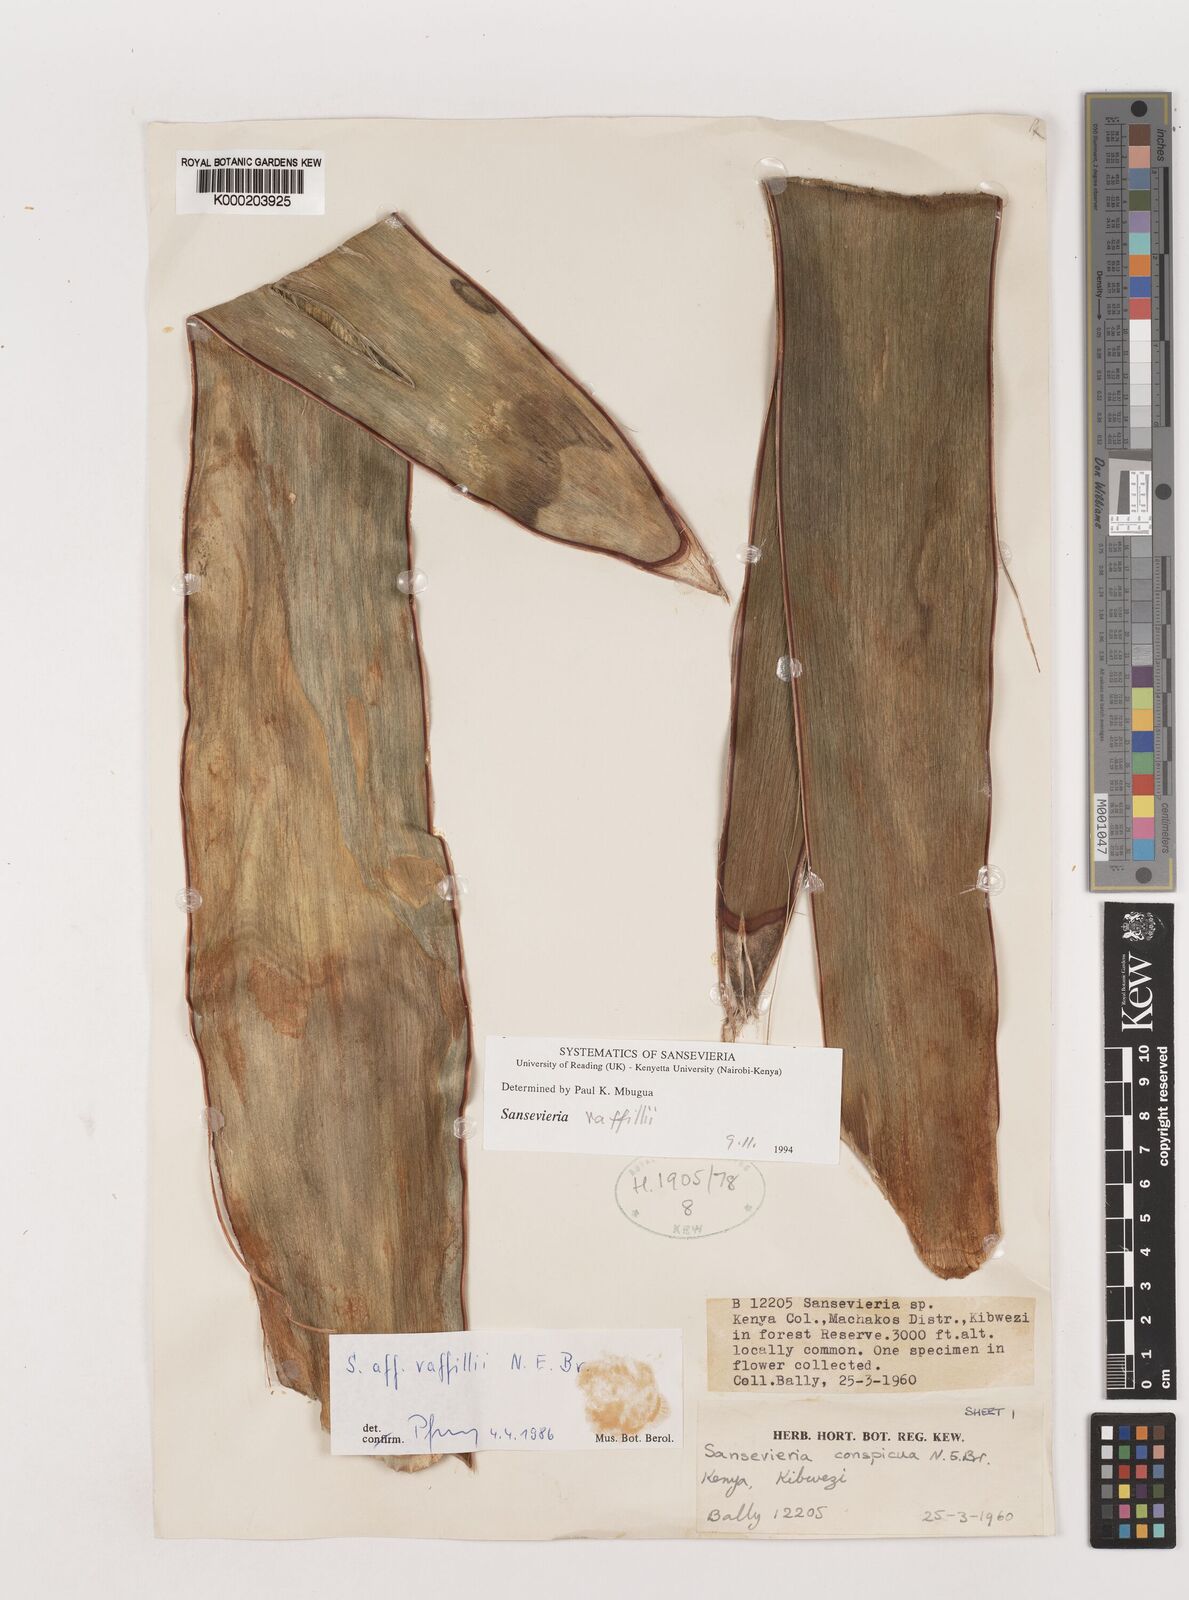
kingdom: Plantae
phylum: Tracheophyta
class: Liliopsida
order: Asparagales
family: Asparagaceae
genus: Dracaena
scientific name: Dracaena raffillii
